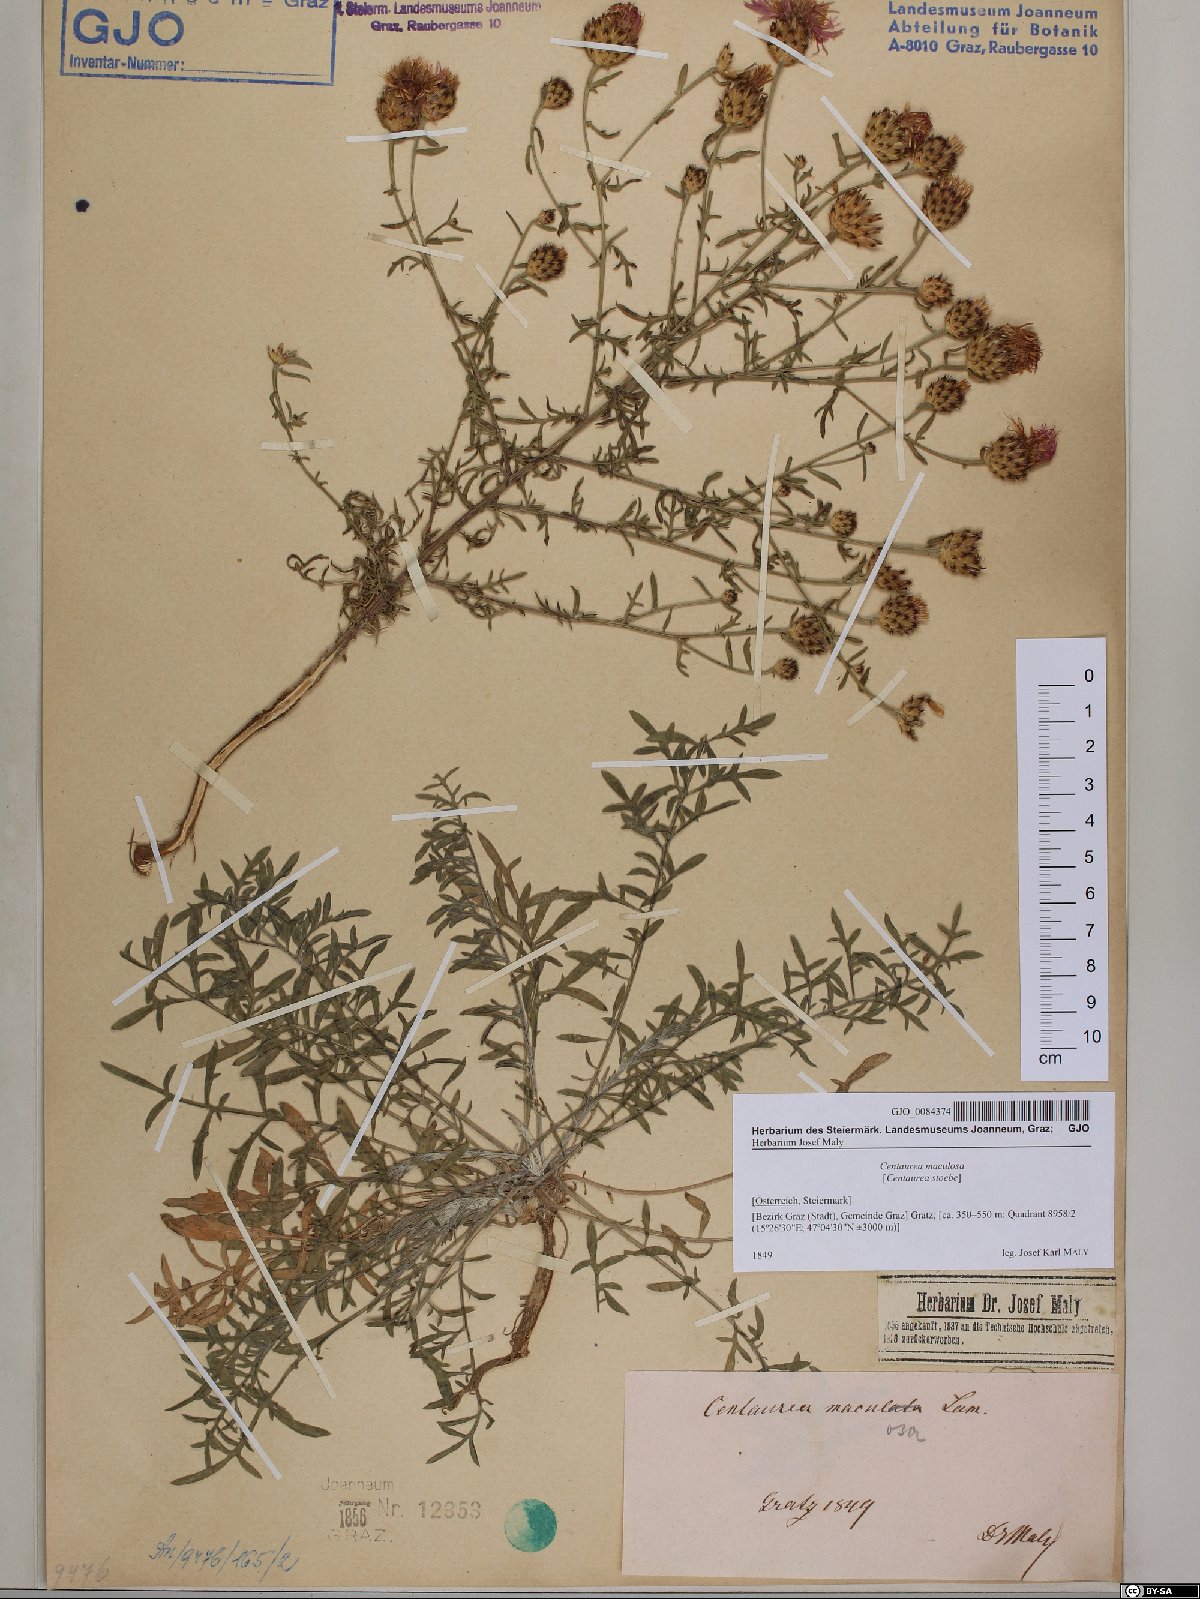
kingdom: Plantae
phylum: Tracheophyta
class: Magnoliopsida
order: Asterales
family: Asteraceae
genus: Centaurea
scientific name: Centaurea stoebe
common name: Spotted knapweed
